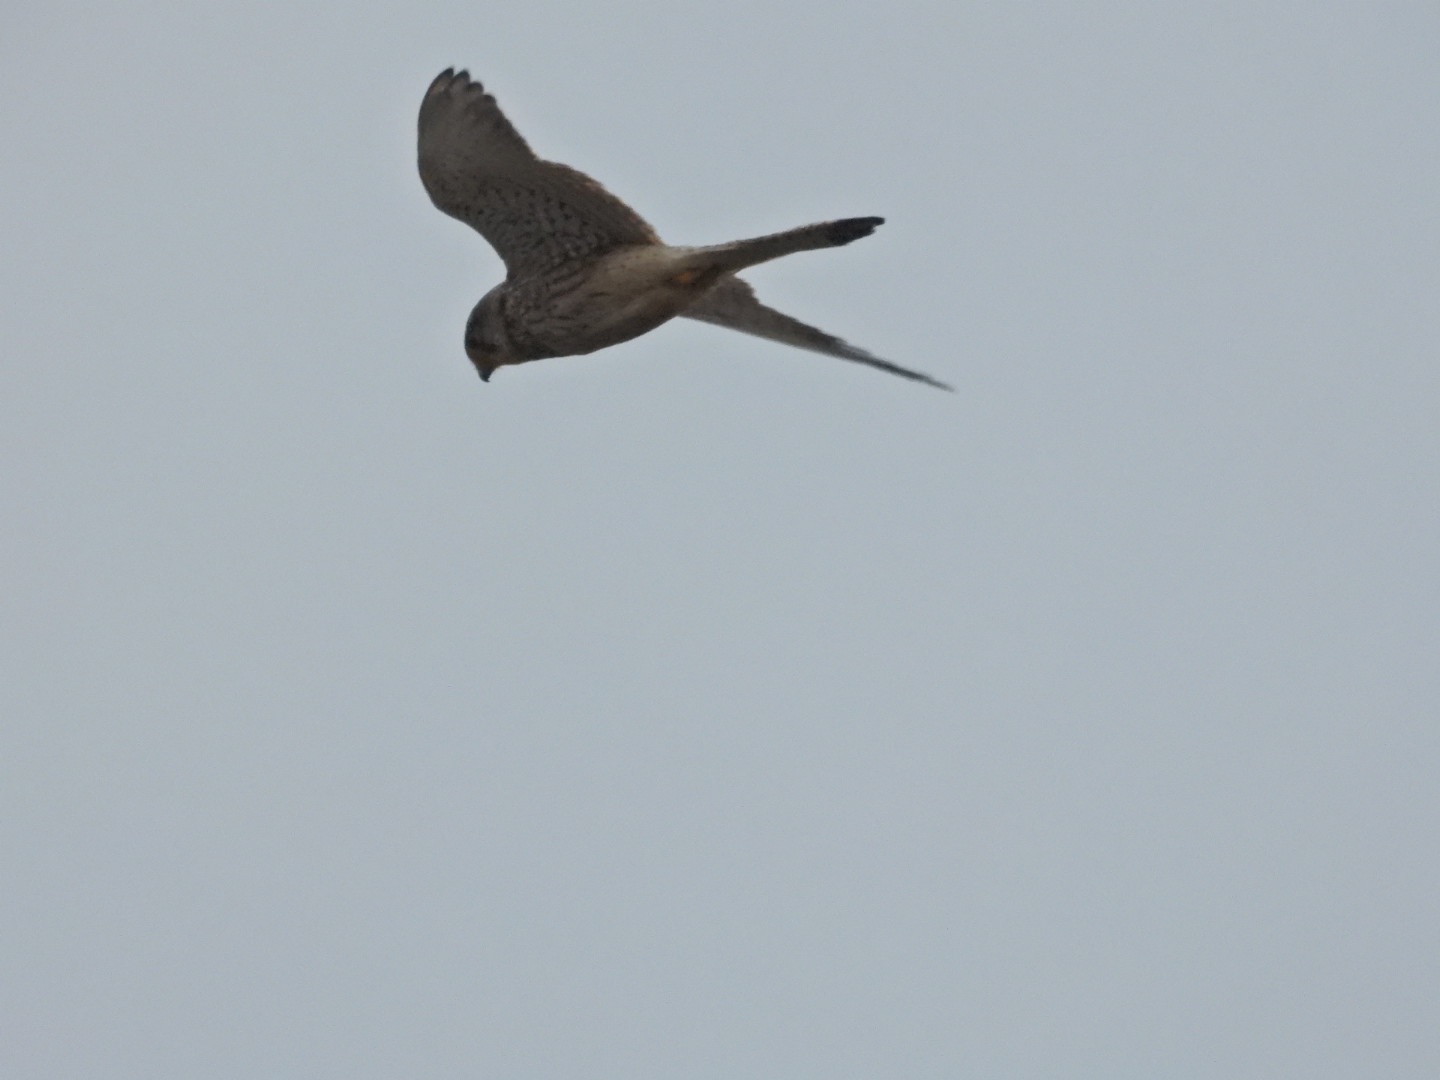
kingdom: Animalia
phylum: Chordata
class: Aves
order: Falconiformes
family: Falconidae
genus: Falco
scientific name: Falco tinnunculus
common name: Tårnfalk
